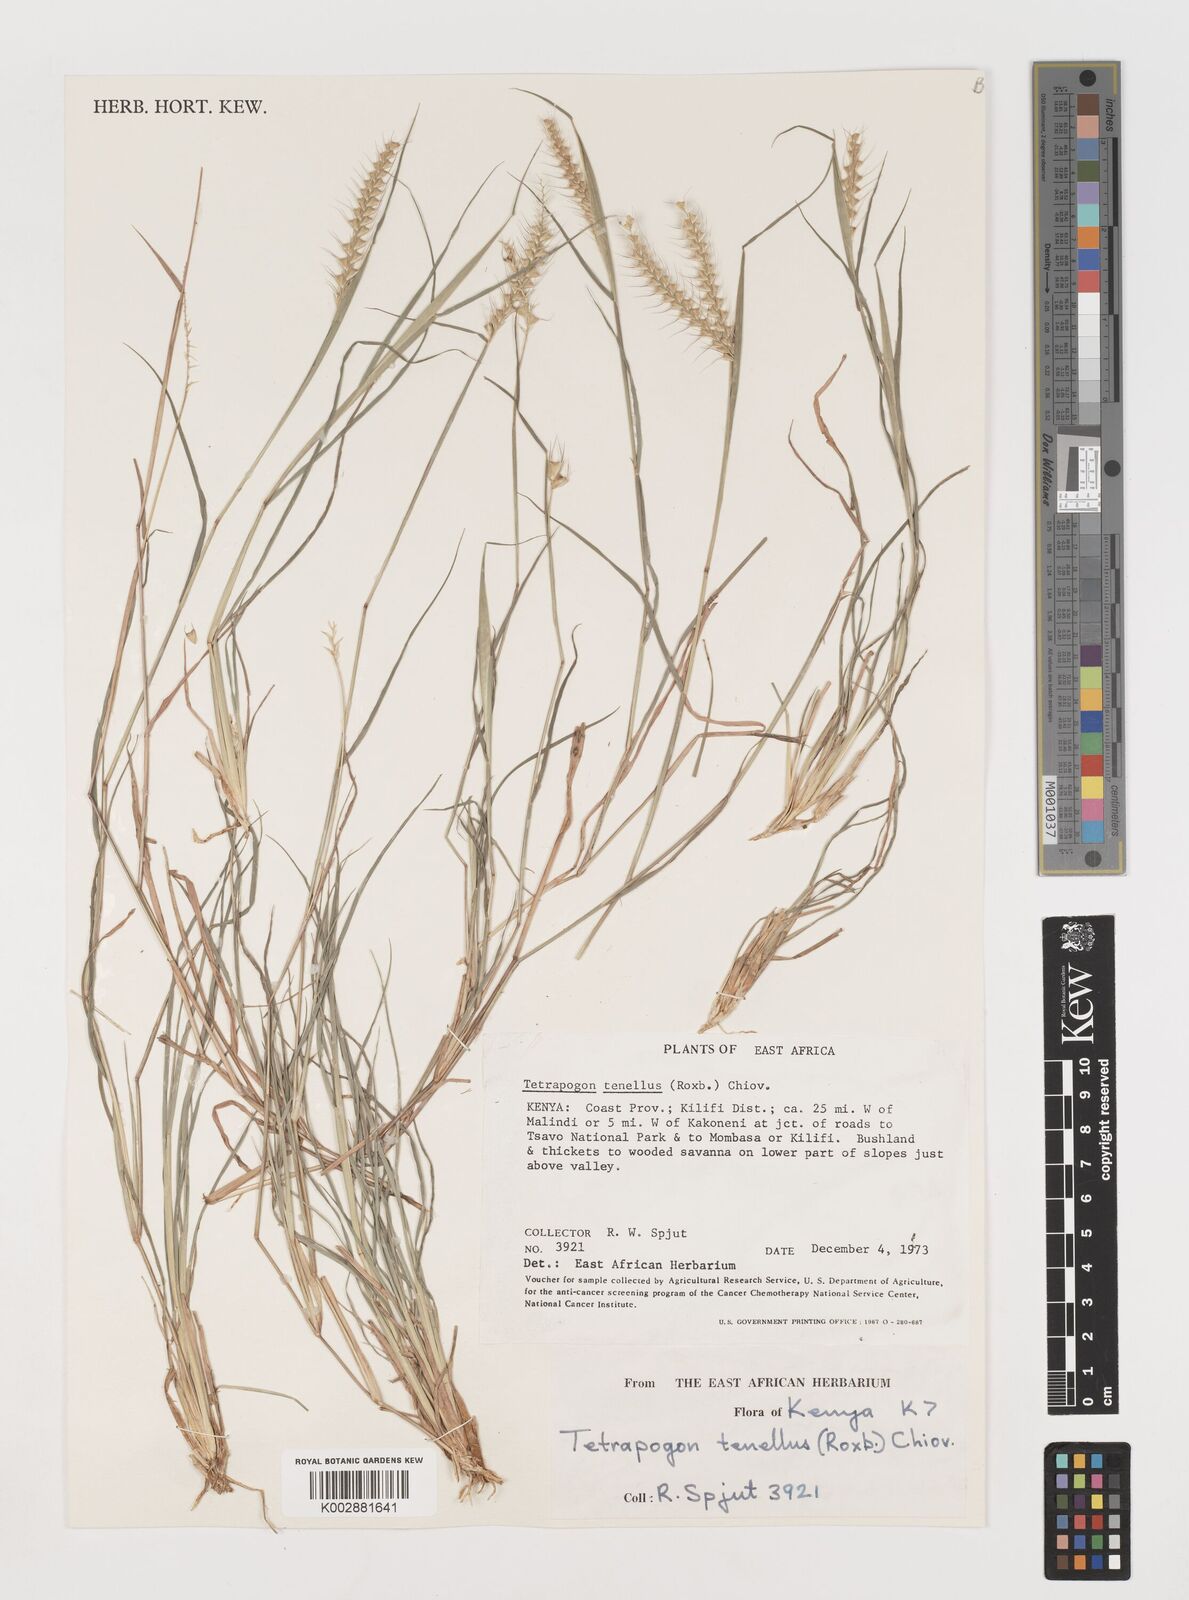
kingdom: Plantae
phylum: Tracheophyta
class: Liliopsida
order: Poales
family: Poaceae
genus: Tetrapogon
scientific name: Tetrapogon tenellus
